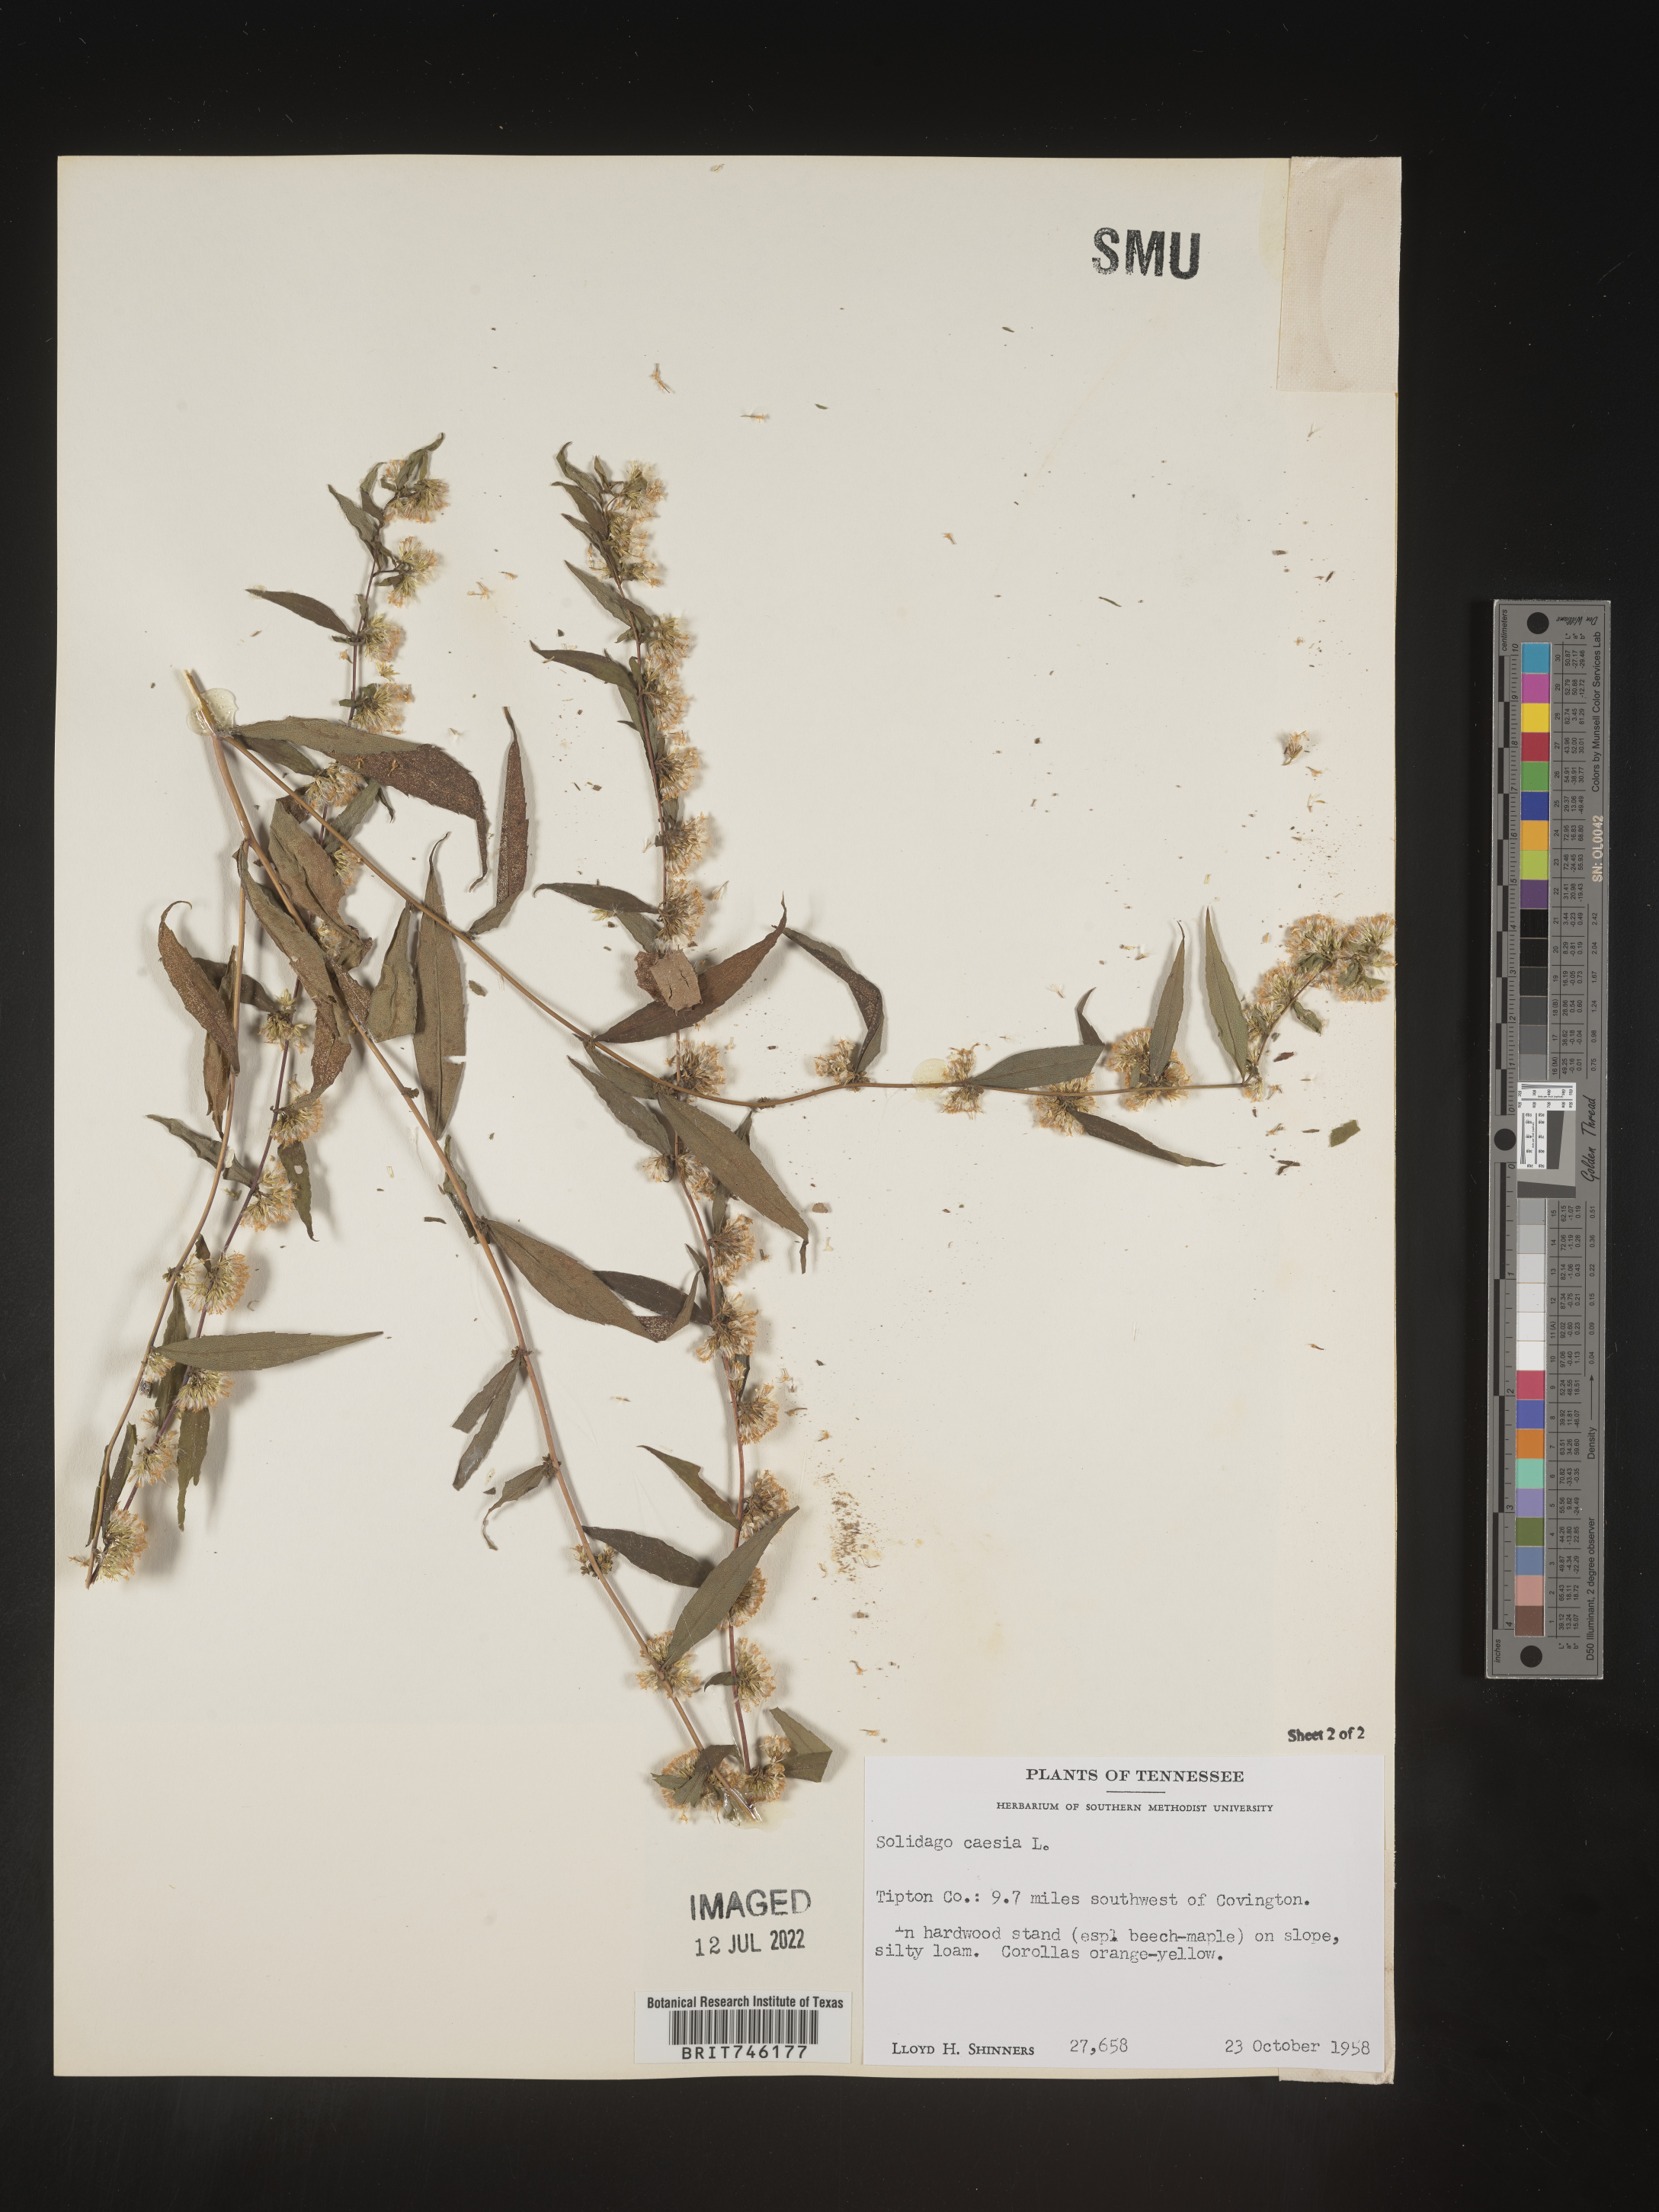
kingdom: Plantae
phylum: Tracheophyta
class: Magnoliopsida
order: Asterales
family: Asteraceae
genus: Solidago
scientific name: Solidago caesia
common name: Woodland goldenrod
